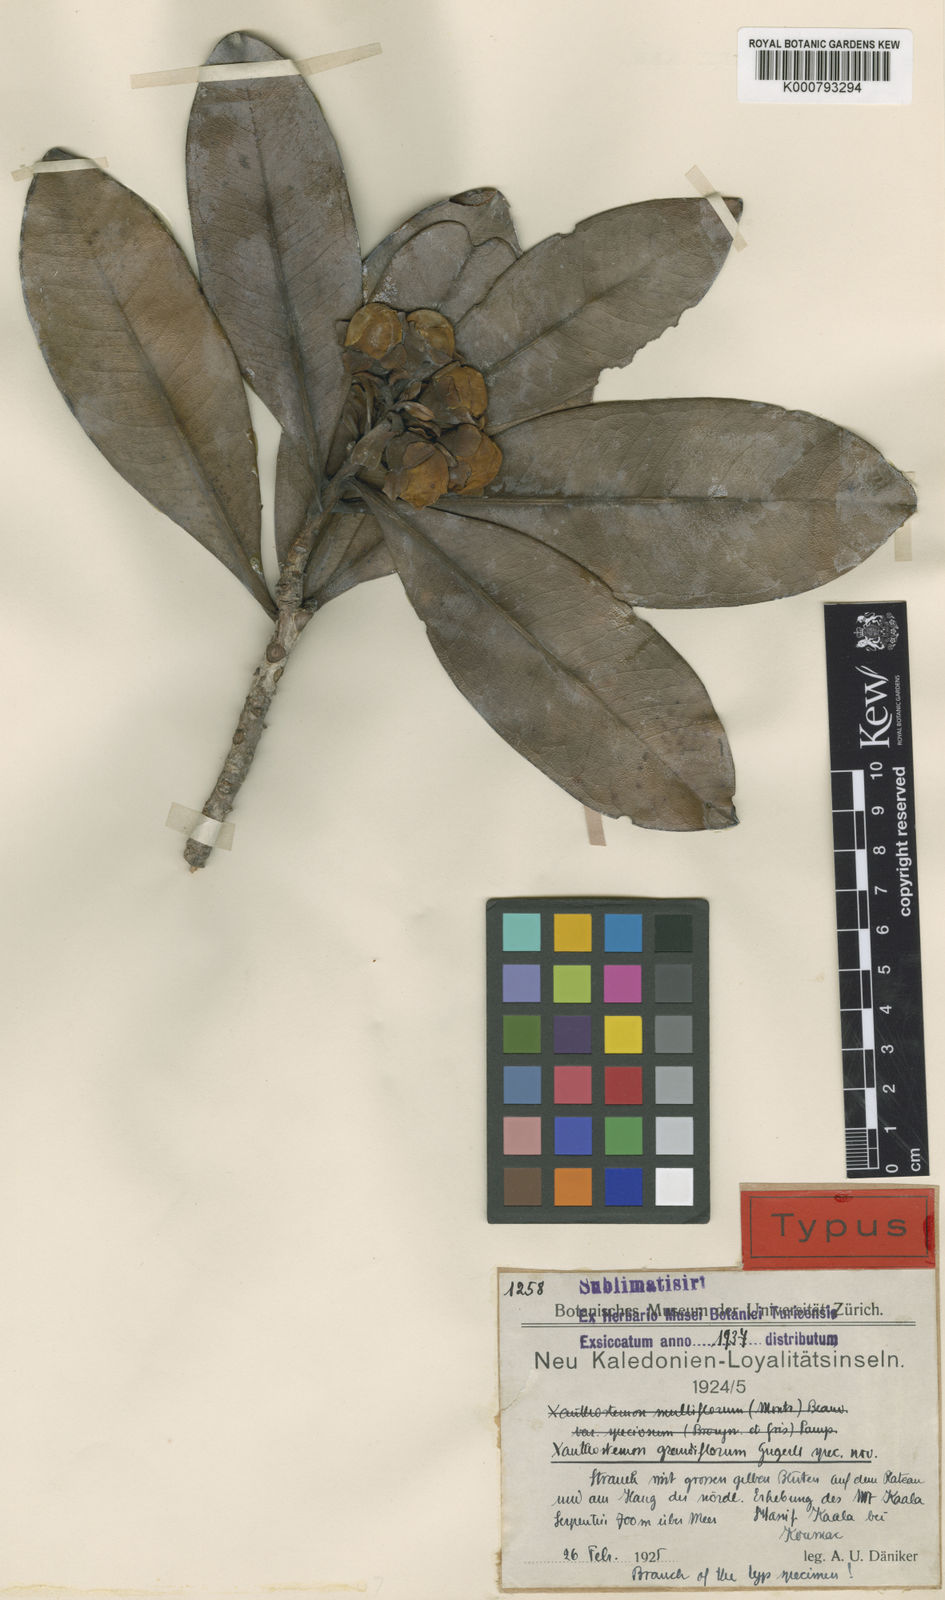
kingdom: Plantae
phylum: Tracheophyta
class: Magnoliopsida
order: Myrtales
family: Myrtaceae
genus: Xanthostemon
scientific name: Xanthostemon laurinus
